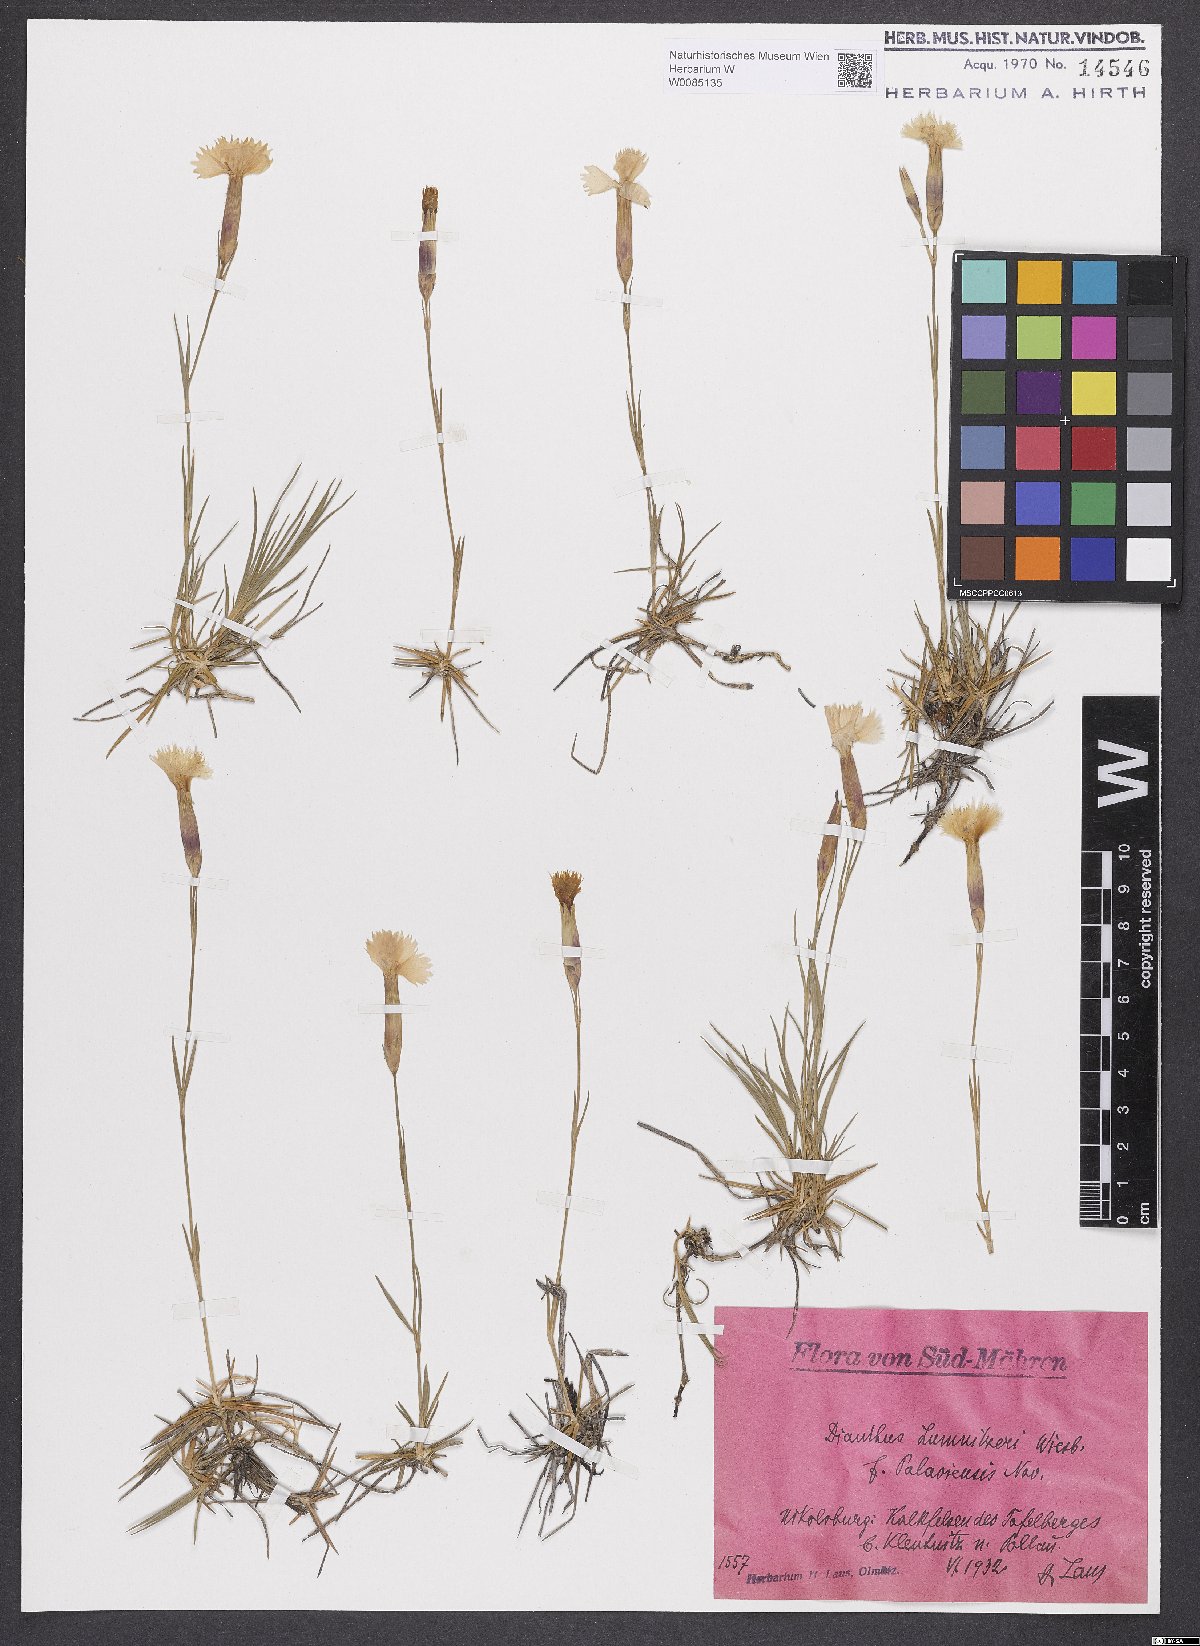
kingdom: Plantae
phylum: Tracheophyta
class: Magnoliopsida
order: Caryophyllales
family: Caryophyllaceae
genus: Dianthus
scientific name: Dianthus praecox
